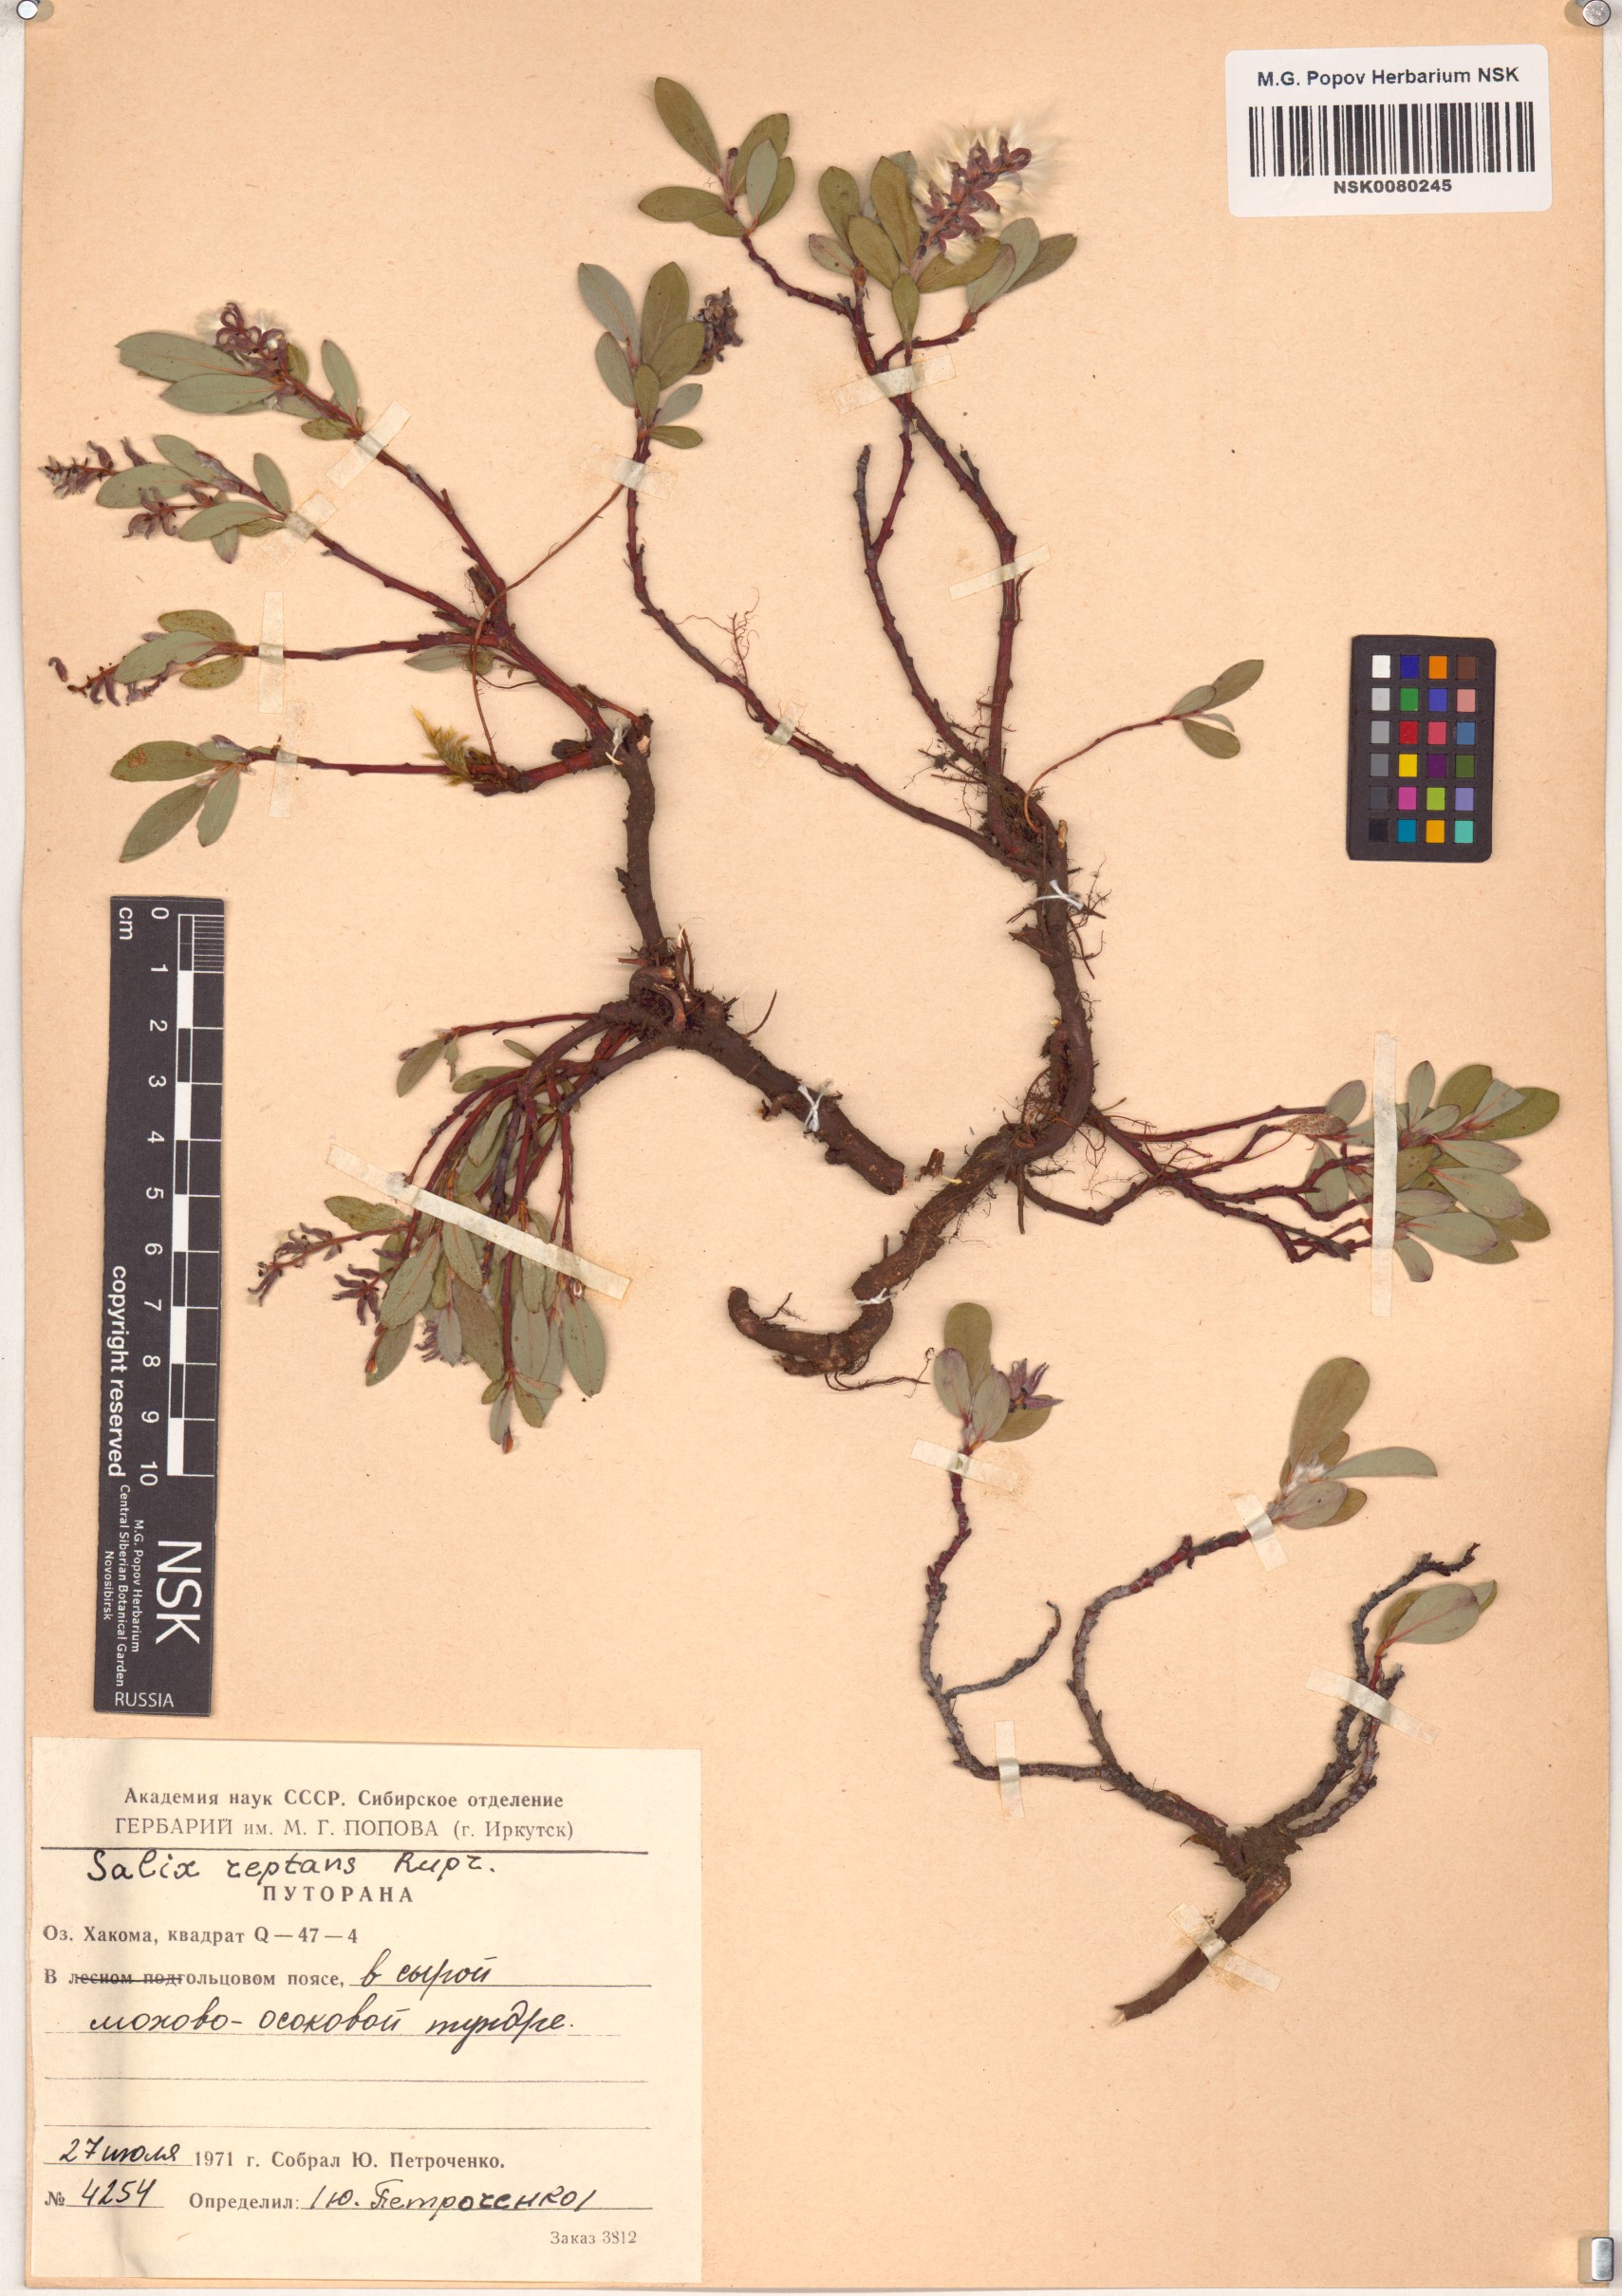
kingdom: Plantae
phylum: Tracheophyta
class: Magnoliopsida
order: Malpighiales
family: Salicaceae
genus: Salix
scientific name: Salix reptans
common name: Arctic creeping willow
